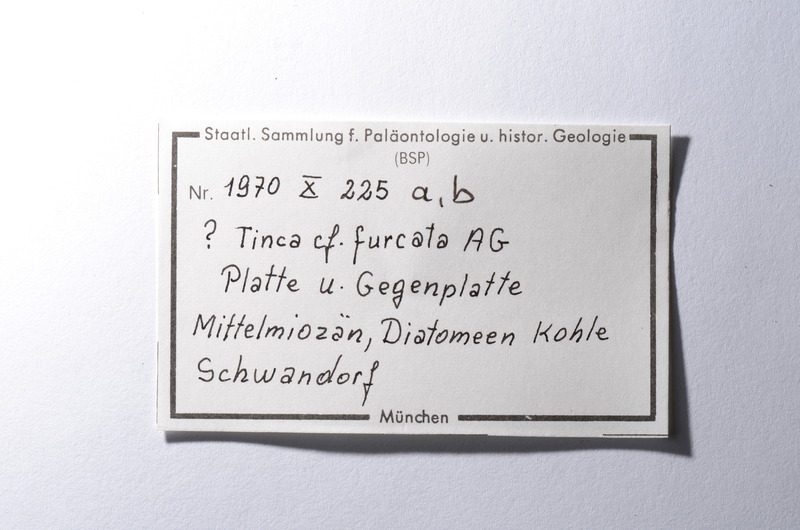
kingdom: Animalia
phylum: Chordata
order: Cypriniformes
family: Cyprinidae
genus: Tinca
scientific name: Tinca fuscata
